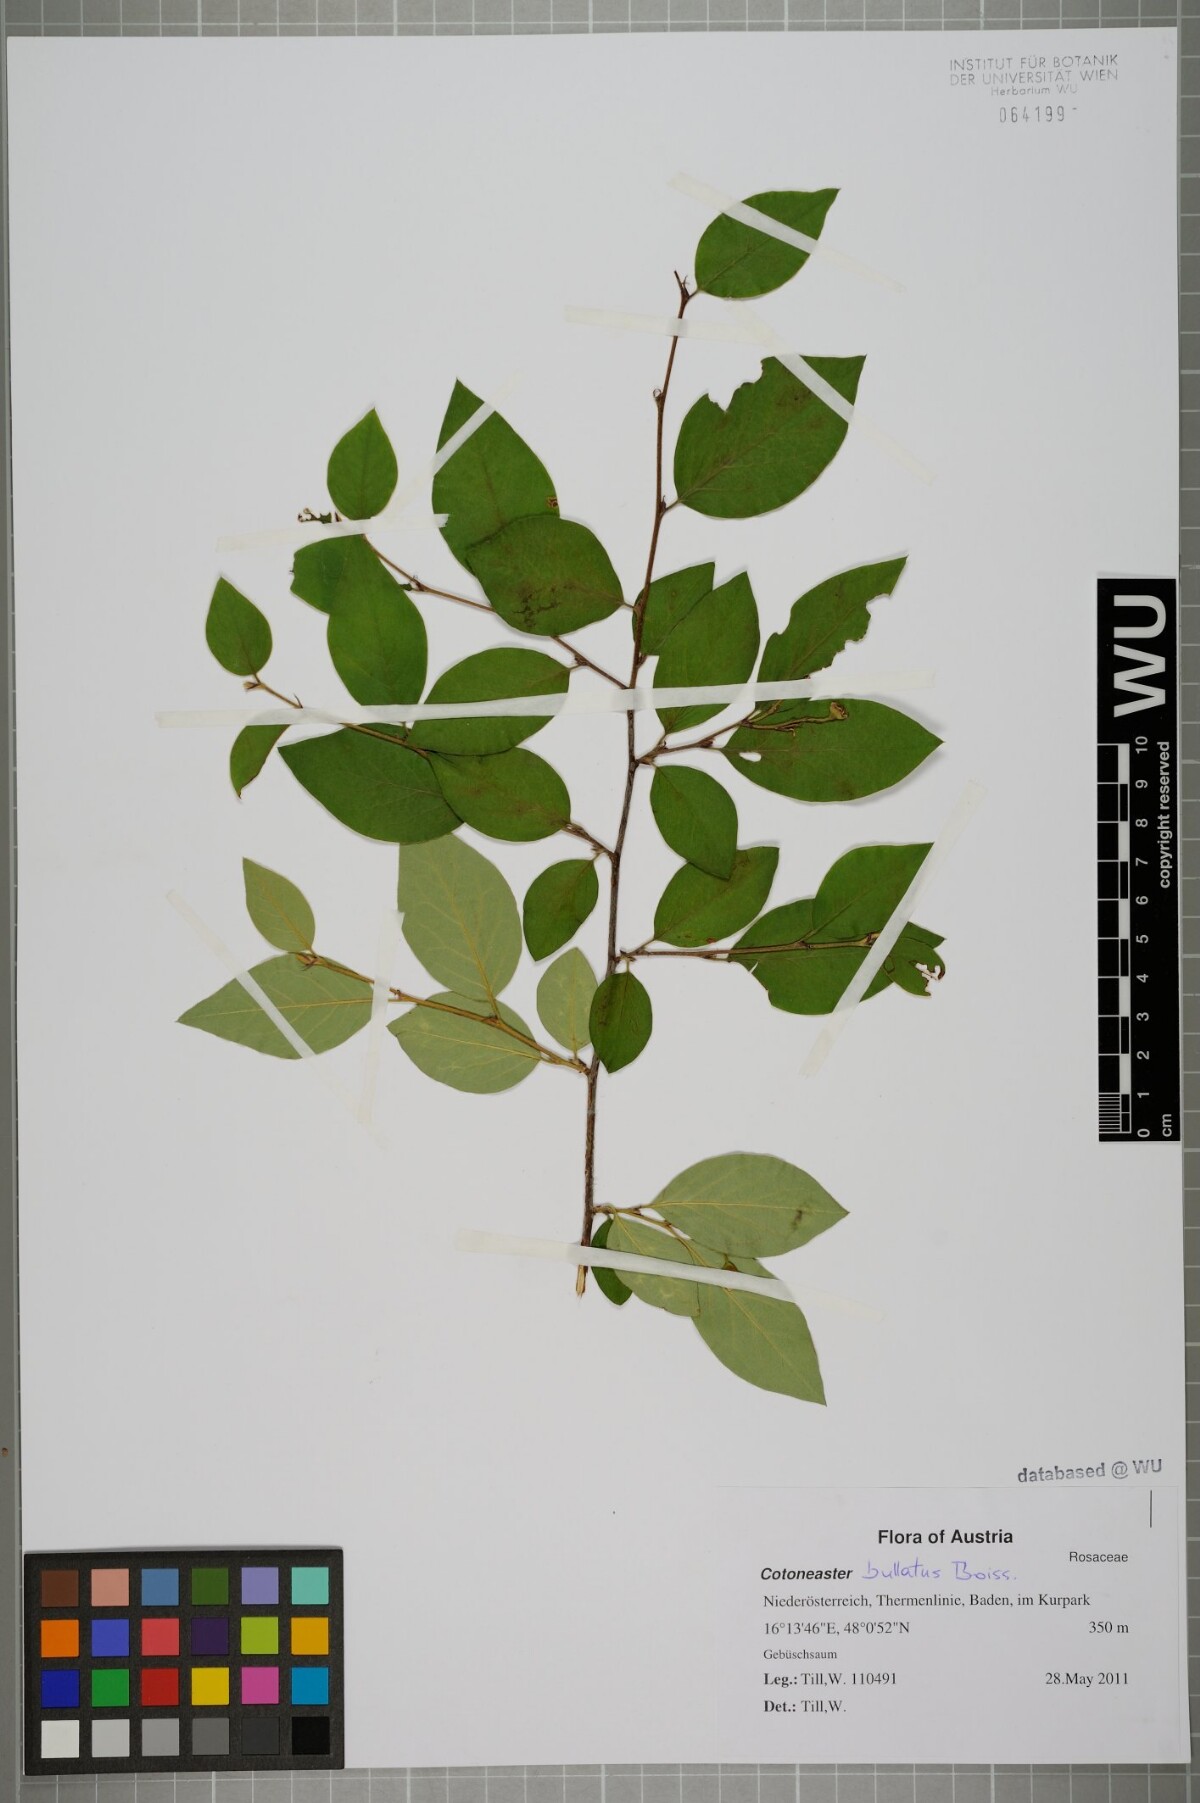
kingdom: Plantae
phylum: Tracheophyta
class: Magnoliopsida
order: Rosales
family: Rosaceae
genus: Cotoneaster
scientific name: Cotoneaster bullatus
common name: Hollyberry cotoneaster
